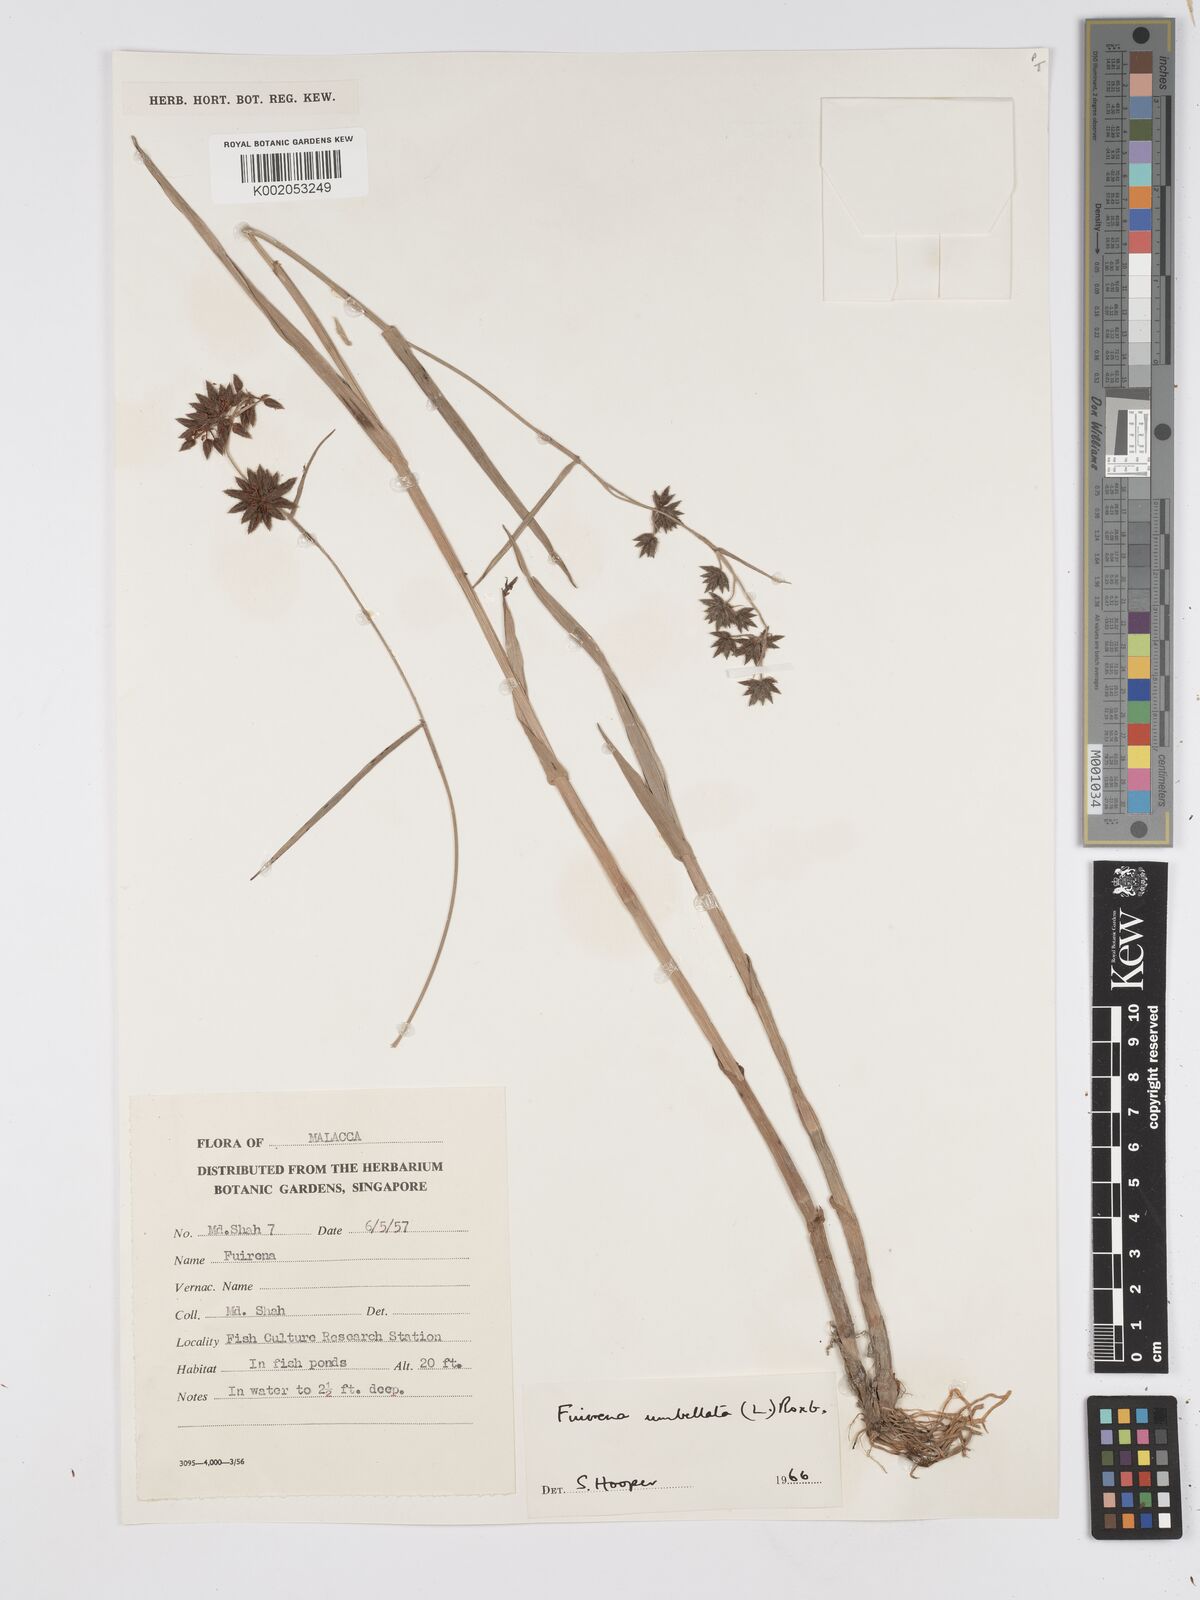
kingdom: Plantae
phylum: Tracheophyta
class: Liliopsida
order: Poales
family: Cyperaceae
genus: Fuirena
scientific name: Fuirena umbellata
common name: Yefen
